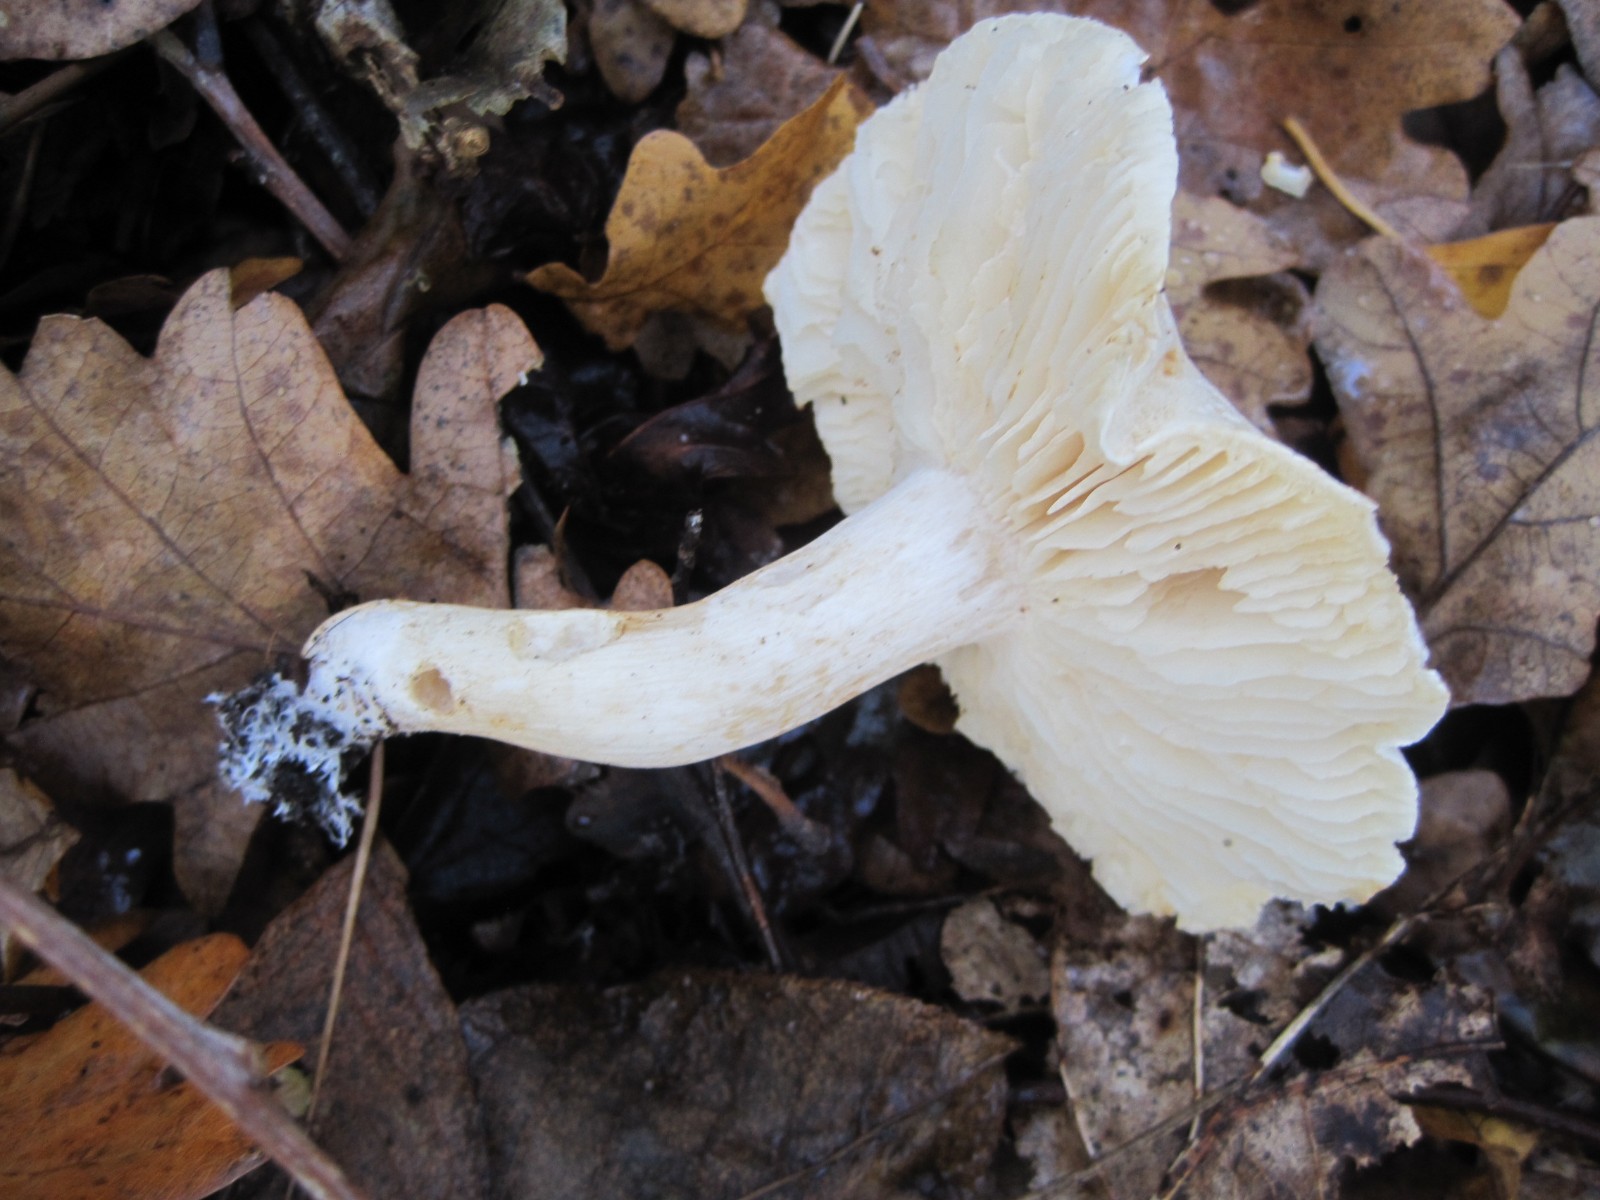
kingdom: Fungi
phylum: Basidiomycota
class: Agaricomycetes
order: Agaricales
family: Tricholomataceae
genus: Tricholoma
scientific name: Tricholoma album
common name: honning-ridderhat
